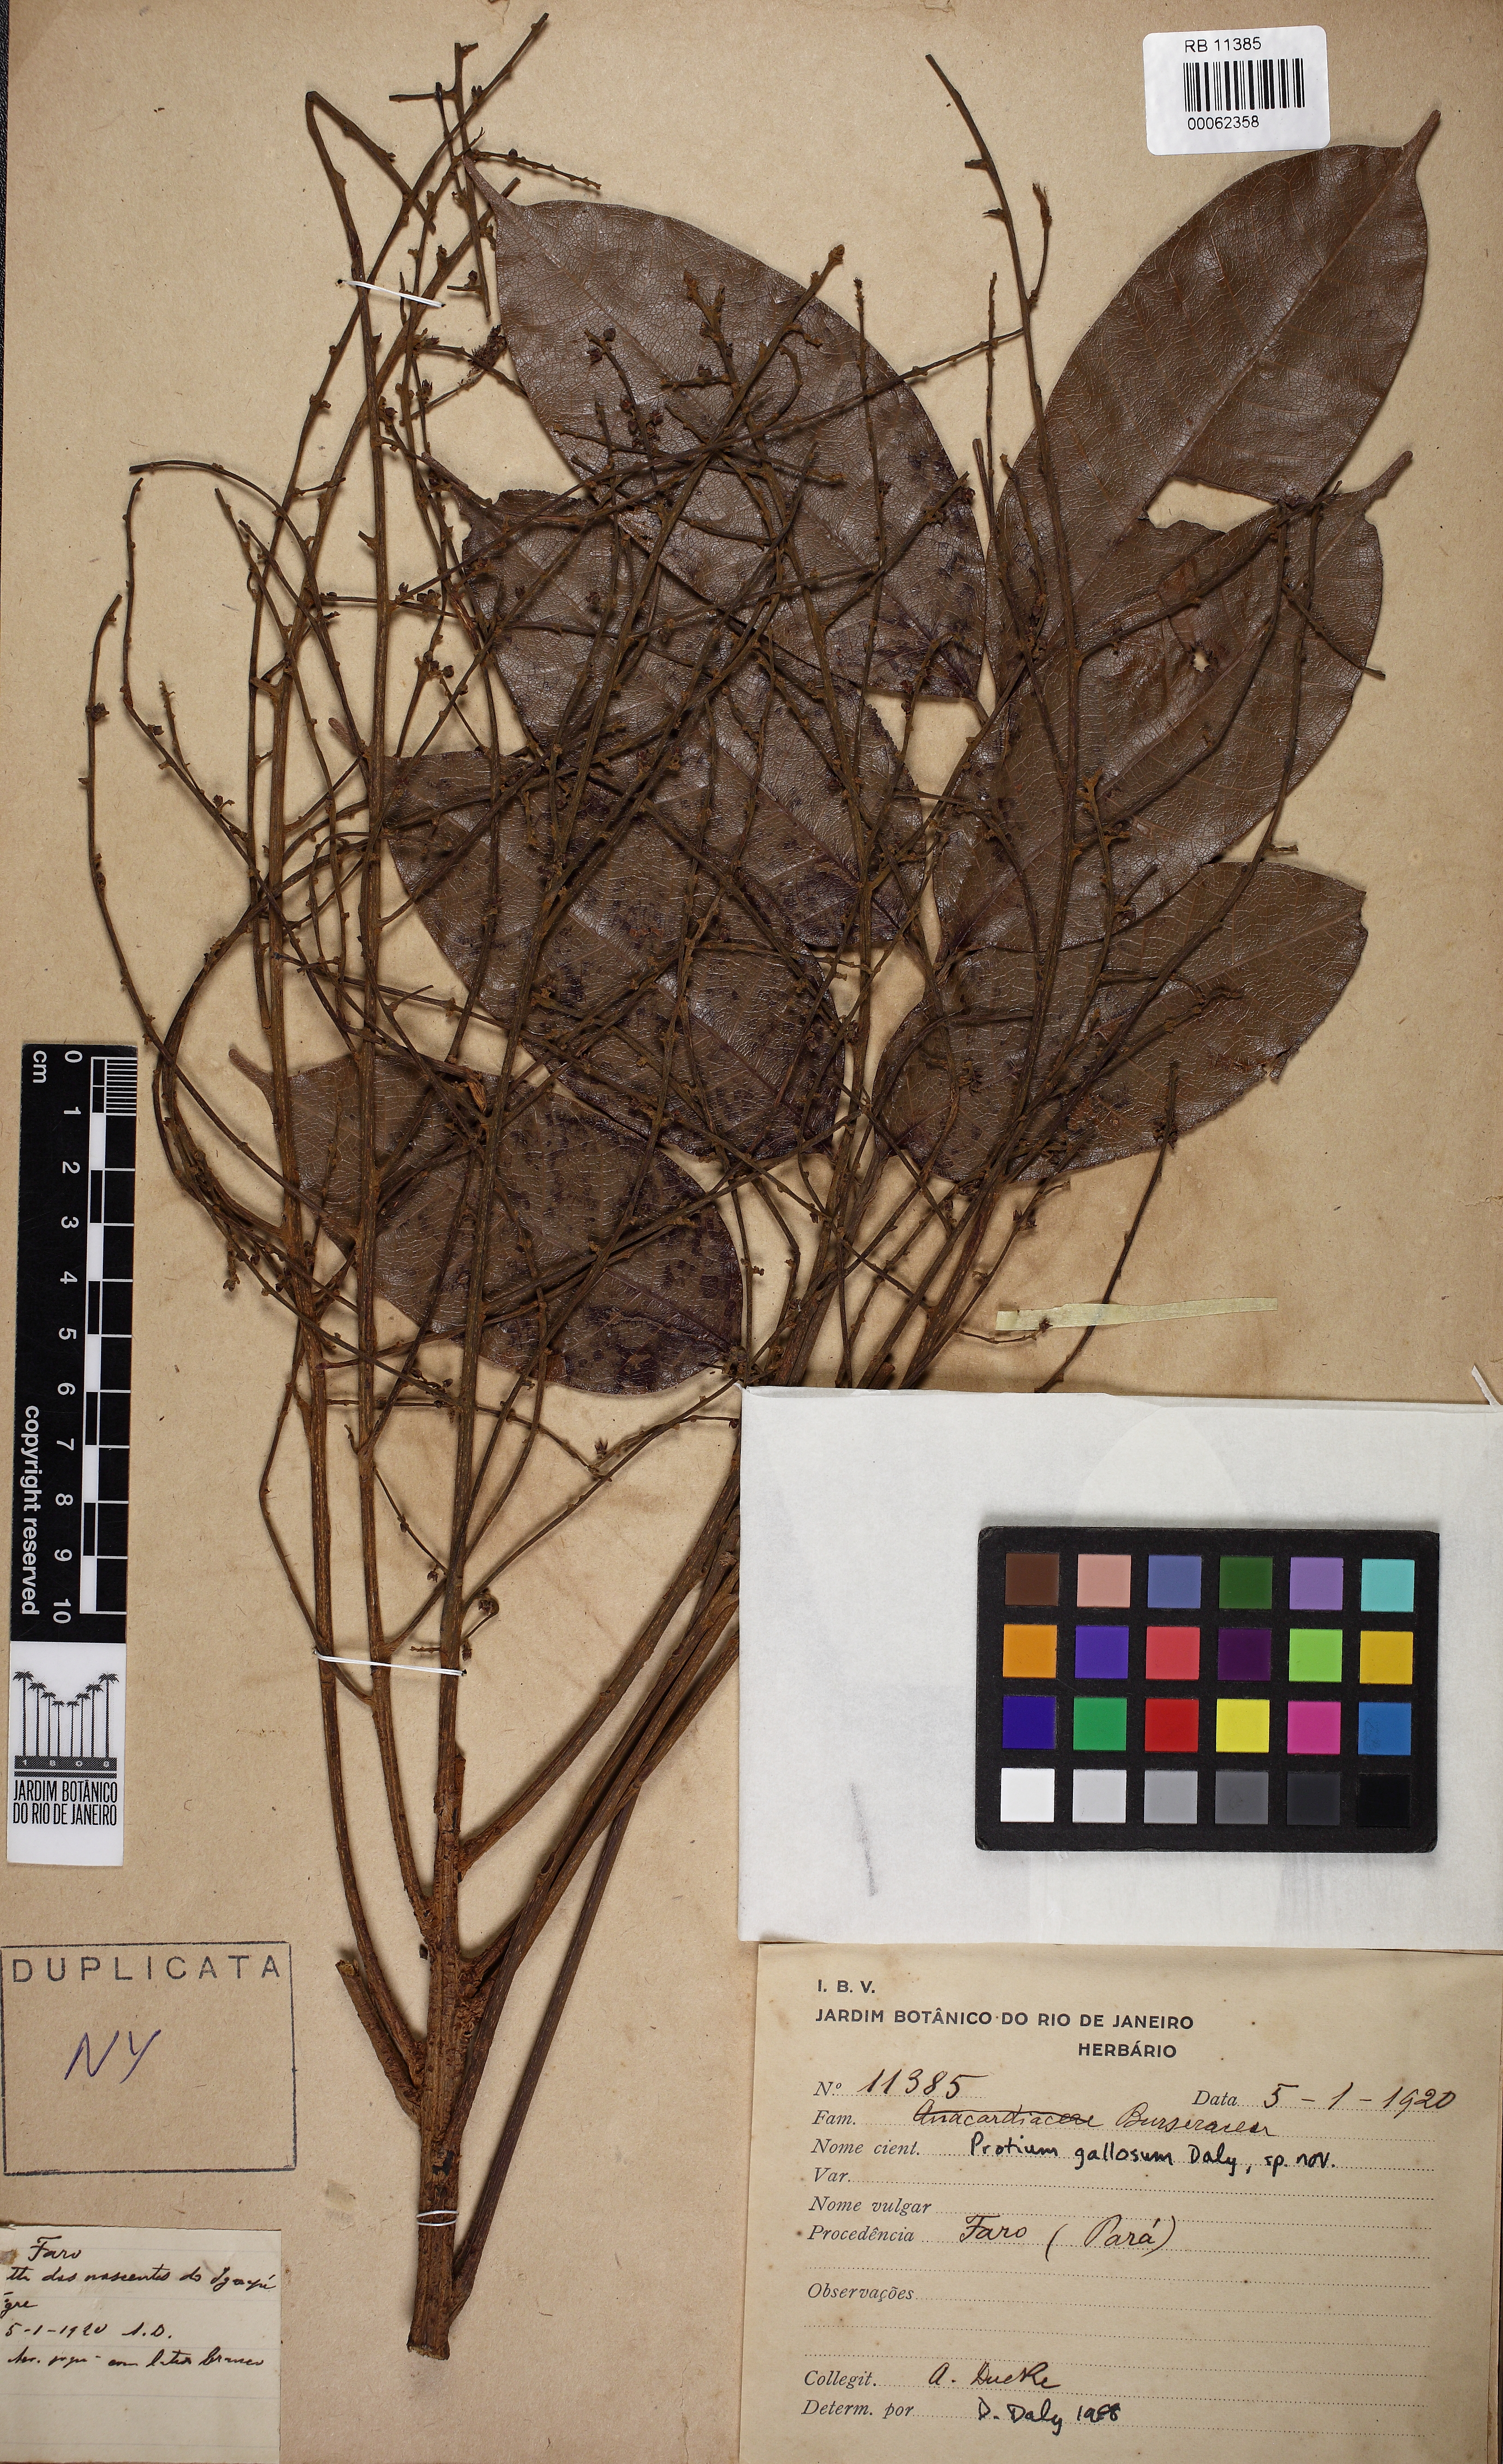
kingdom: Plantae
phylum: Tracheophyta
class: Magnoliopsida
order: Sapindales
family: Burseraceae
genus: Protium
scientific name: Protium gallicum
